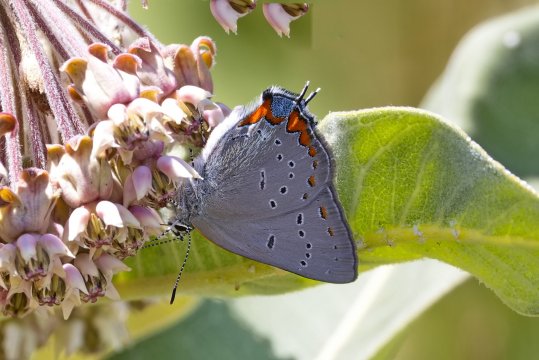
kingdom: Animalia
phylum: Arthropoda
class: Insecta
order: Lepidoptera
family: Lycaenidae
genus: Strymon
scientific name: Strymon acadica
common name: Acadian Hairstreak
